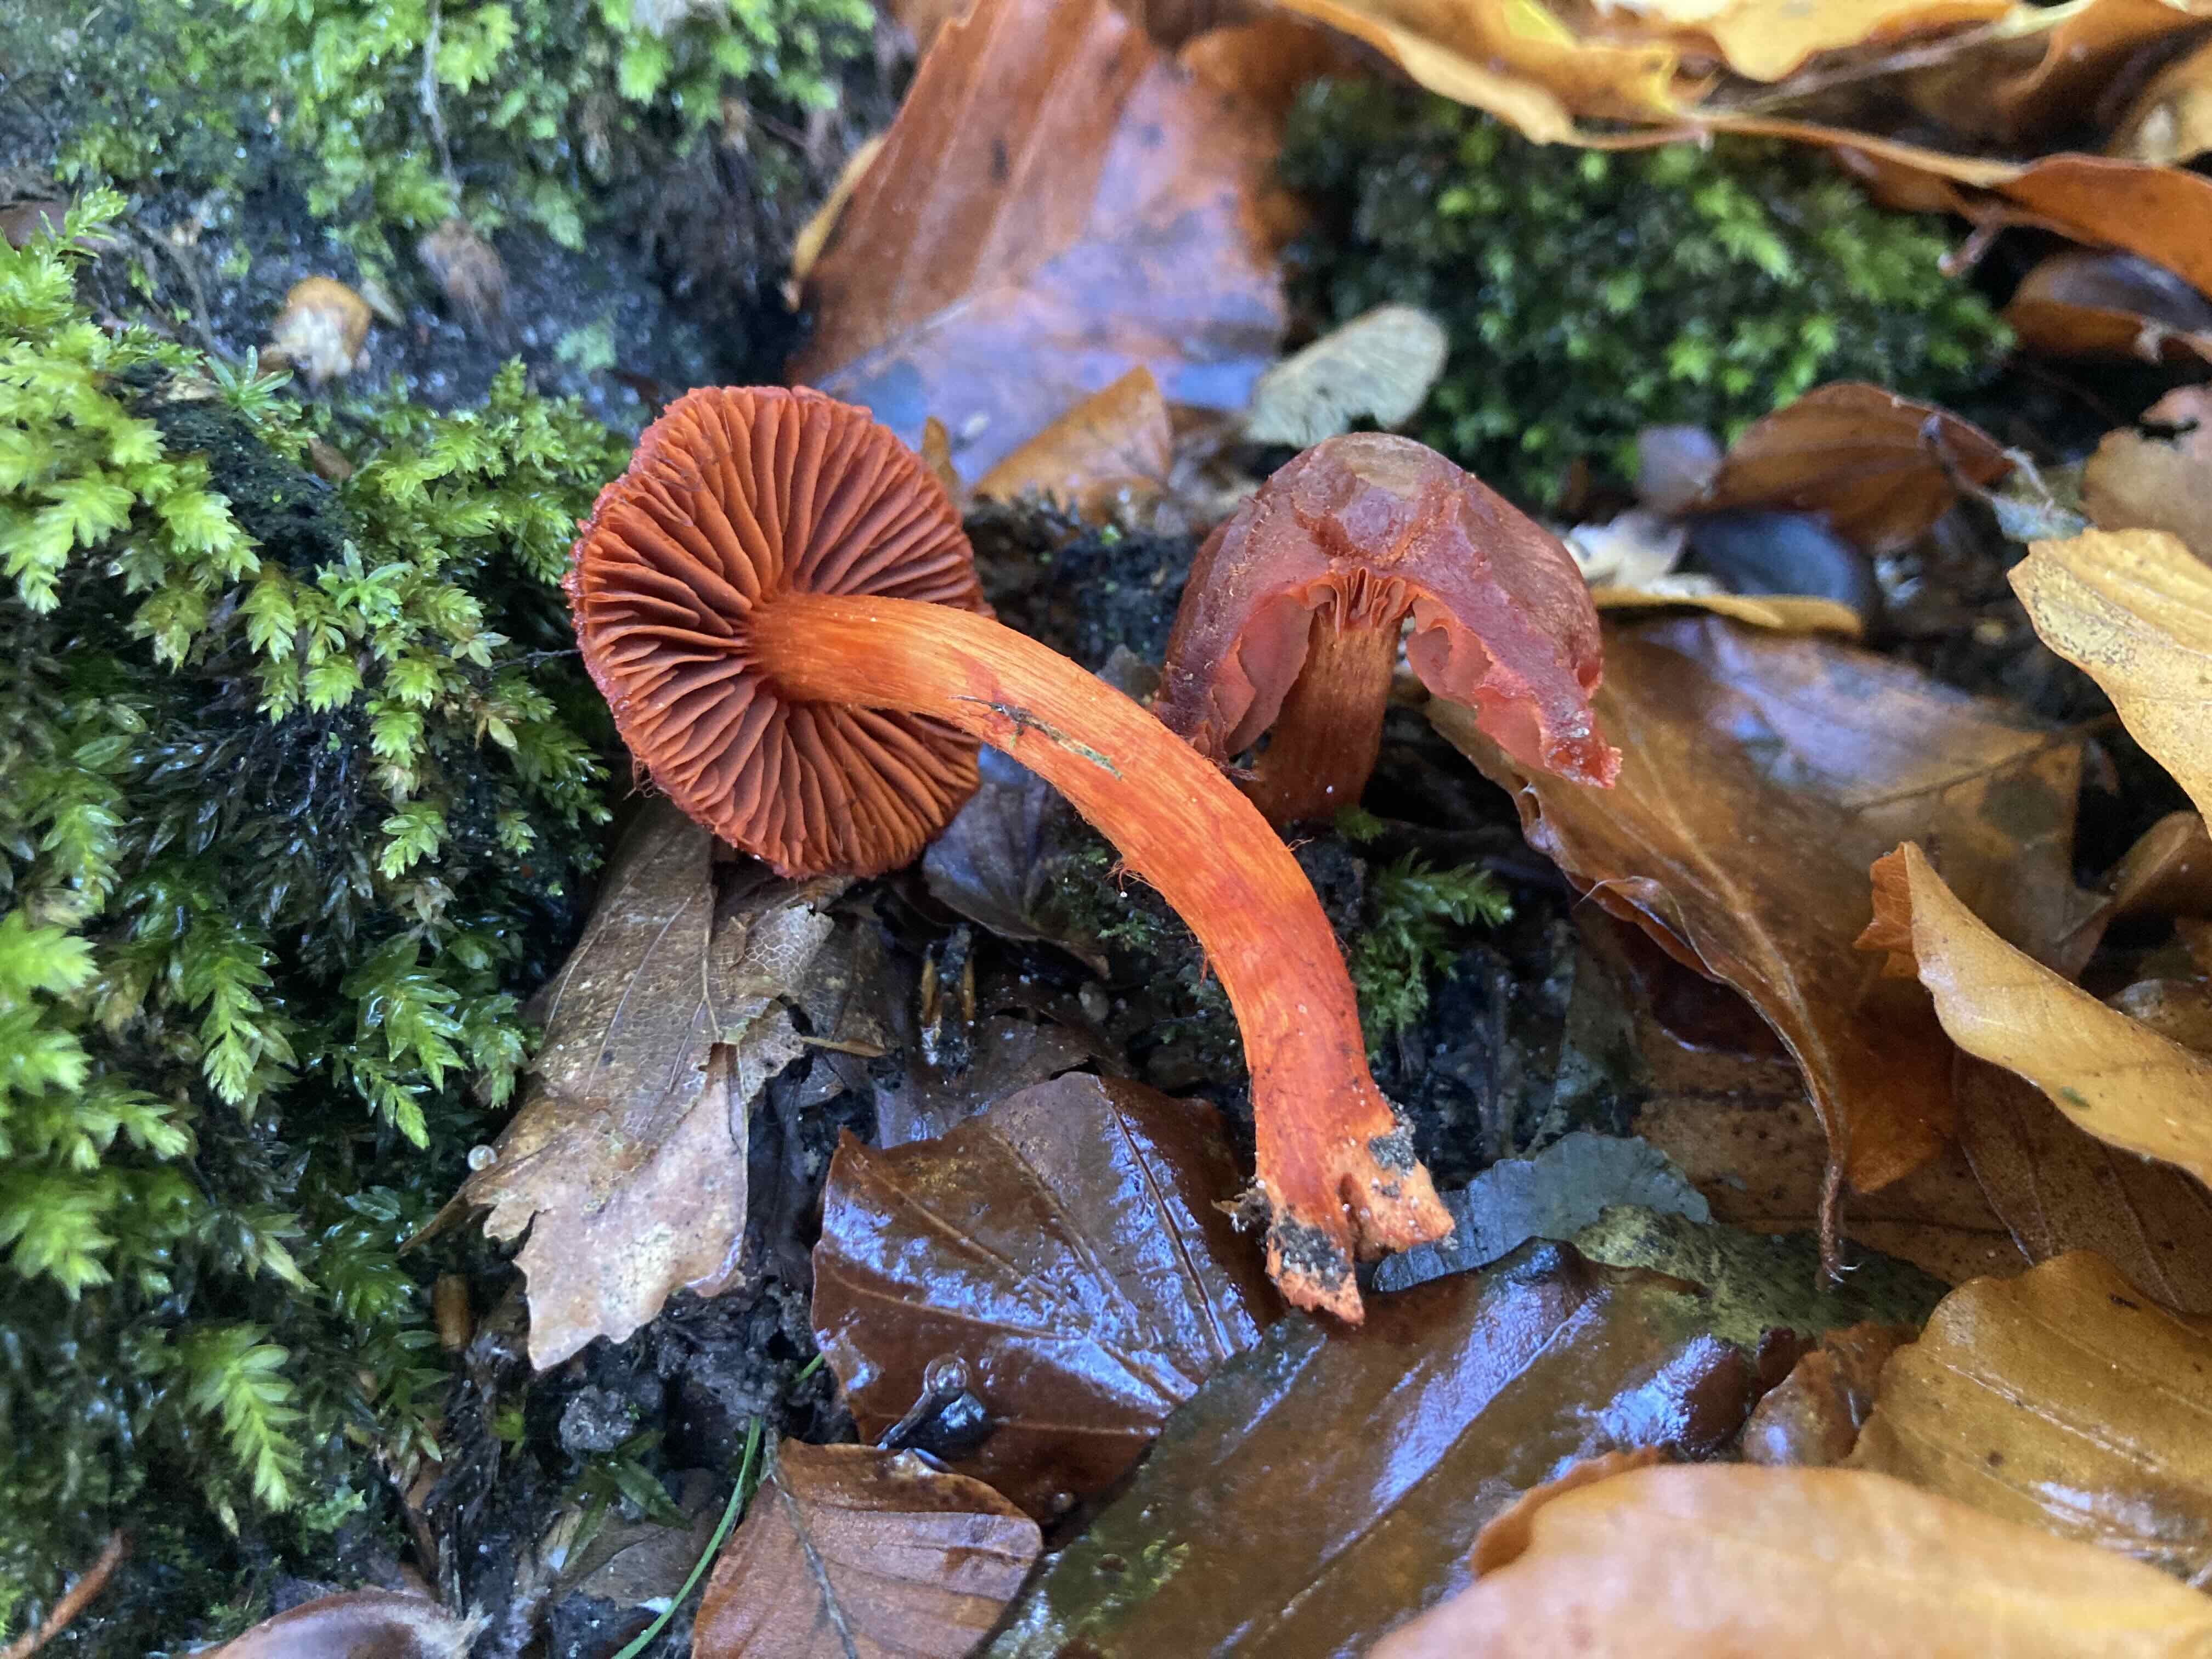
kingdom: Fungi
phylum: Basidiomycota
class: Agaricomycetes
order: Agaricales
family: Cortinariaceae
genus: Cortinarius
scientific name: Cortinarius cinnabarinus
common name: cinnober-slørhat
